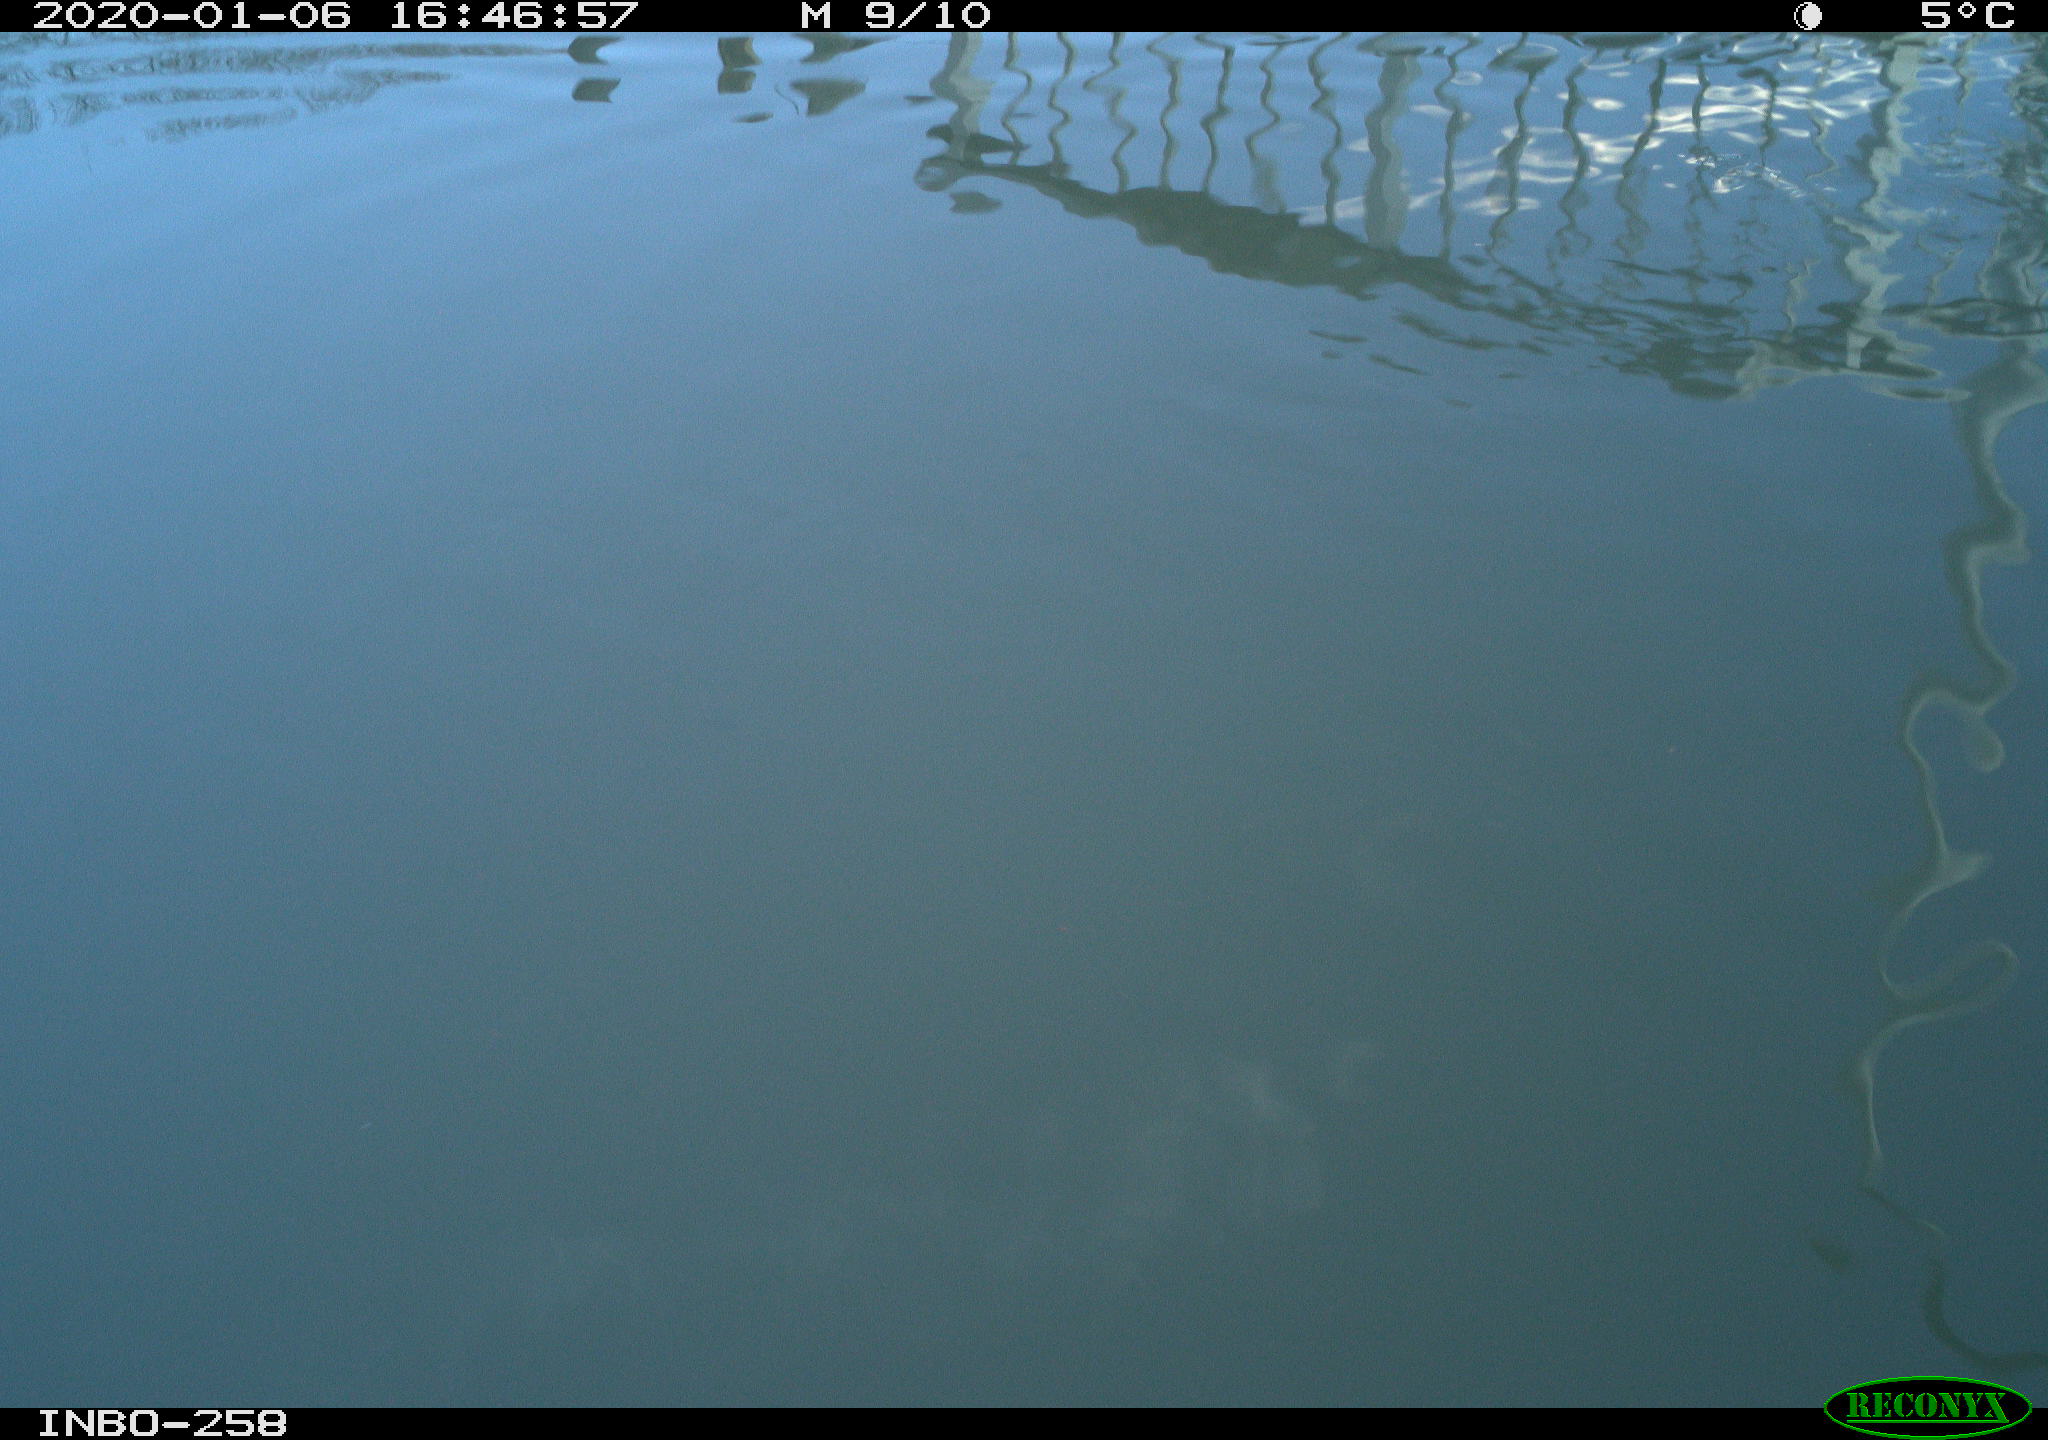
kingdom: Animalia
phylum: Chordata
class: Aves
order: Gruiformes
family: Rallidae
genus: Gallinula
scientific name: Gallinula chloropus
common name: Common moorhen
